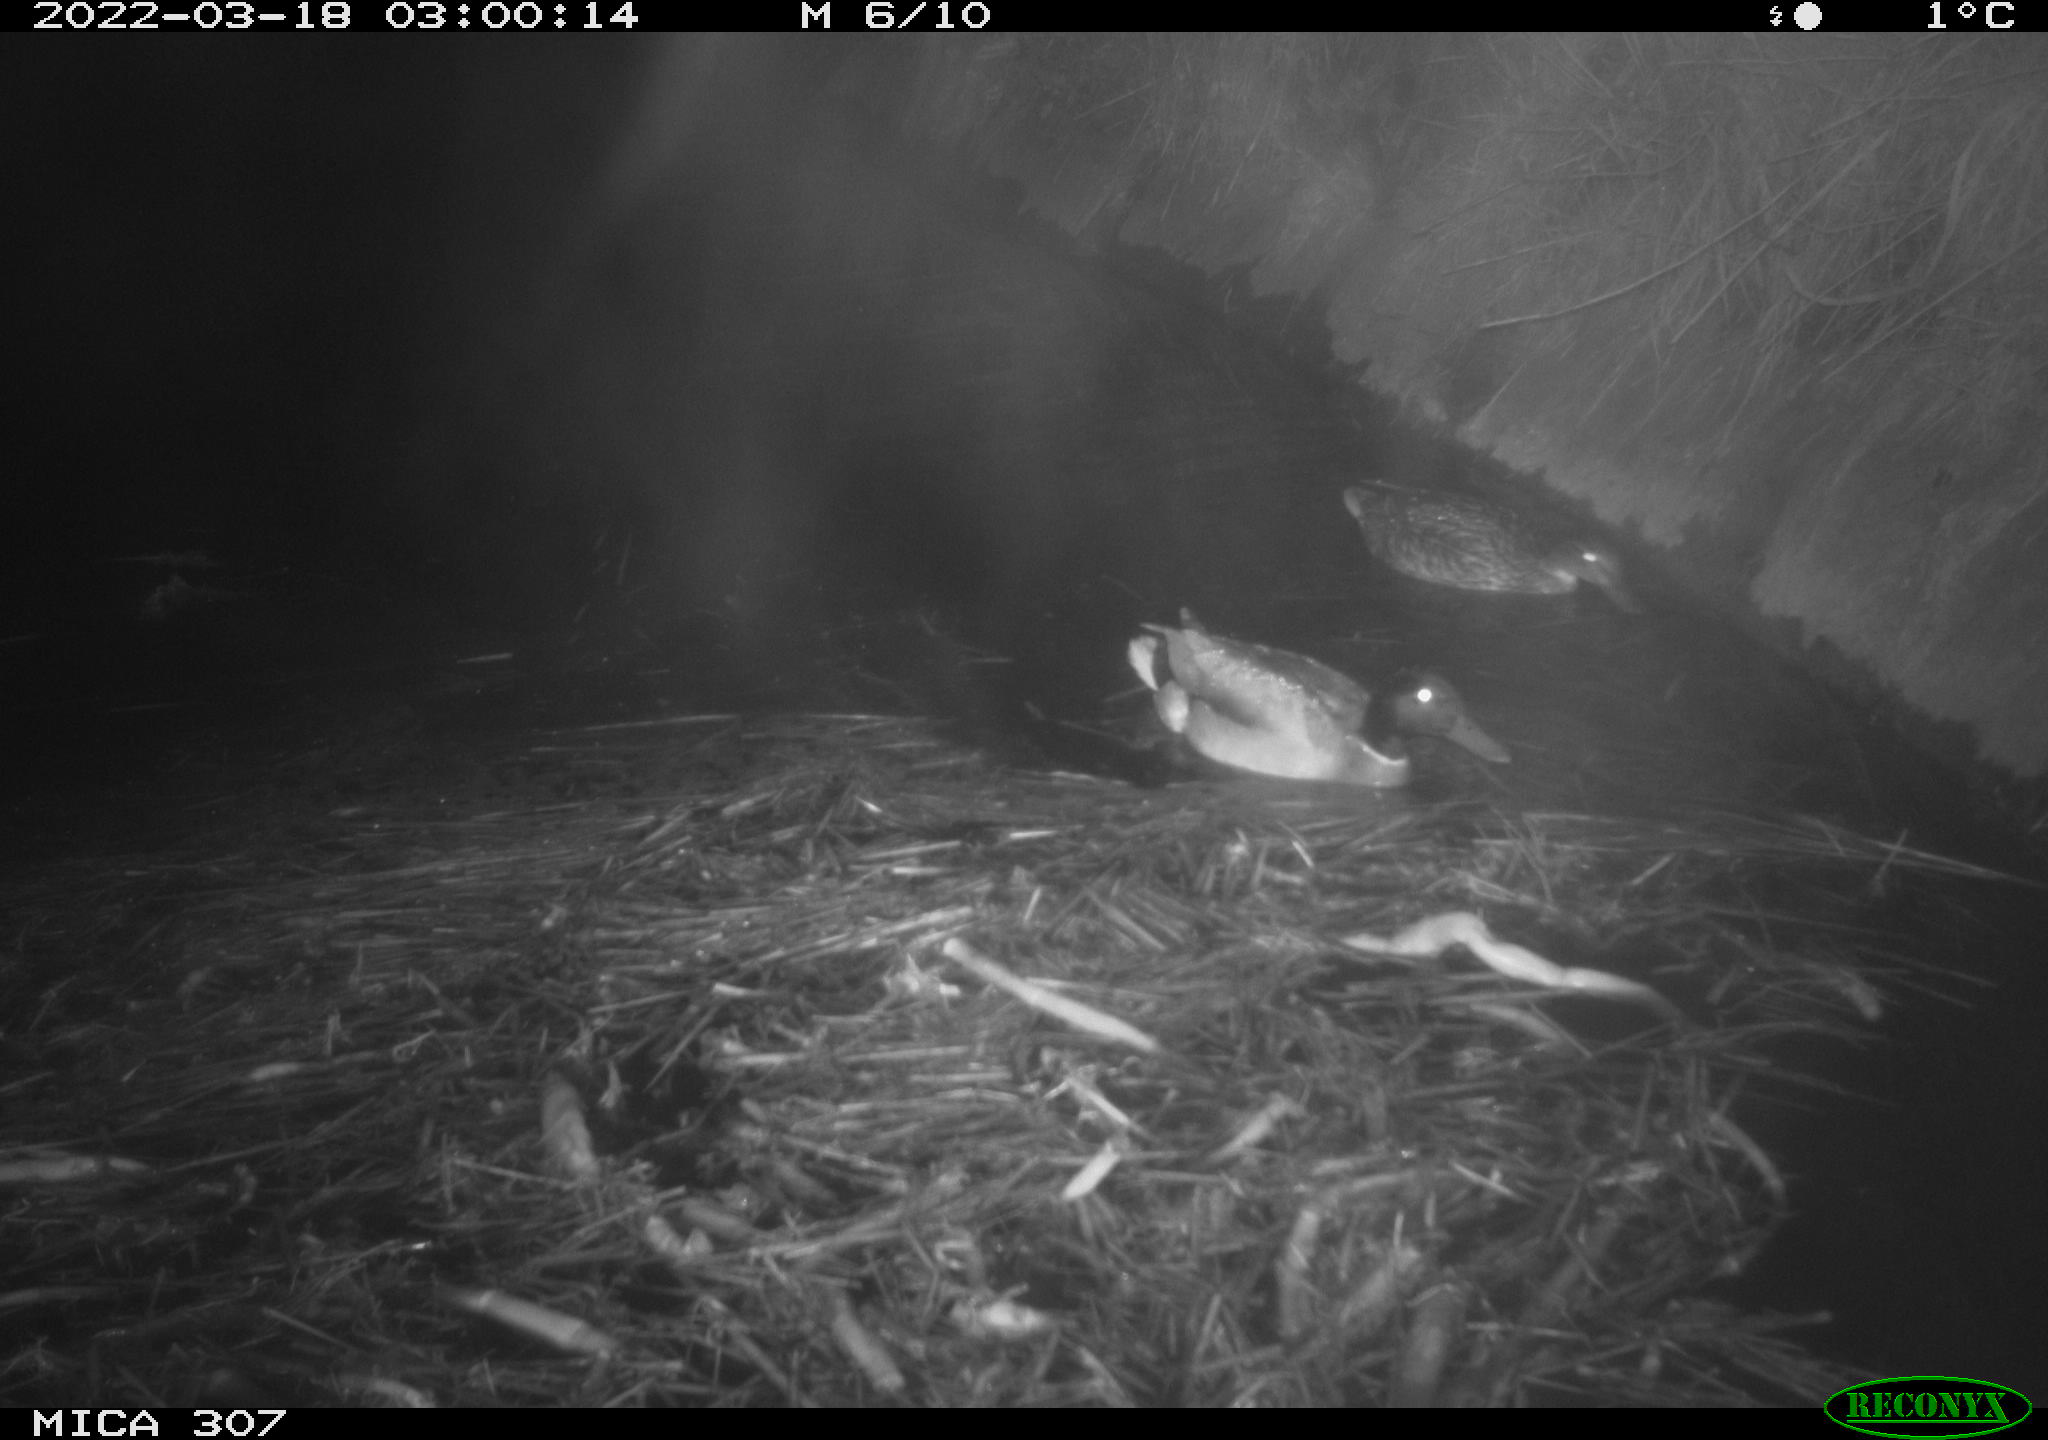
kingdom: Animalia
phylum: Chordata
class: Aves
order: Anseriformes
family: Anatidae
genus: Anas
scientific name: Anas platyrhynchos
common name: Mallard
